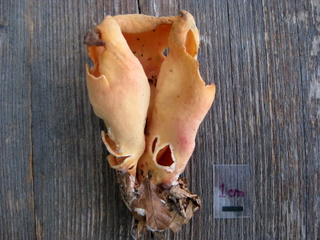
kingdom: Fungi
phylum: Ascomycota
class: Pezizomycetes
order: Pezizales
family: Otideaceae
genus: Otidea
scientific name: Otidea onotica
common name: æsel-ørebæger
